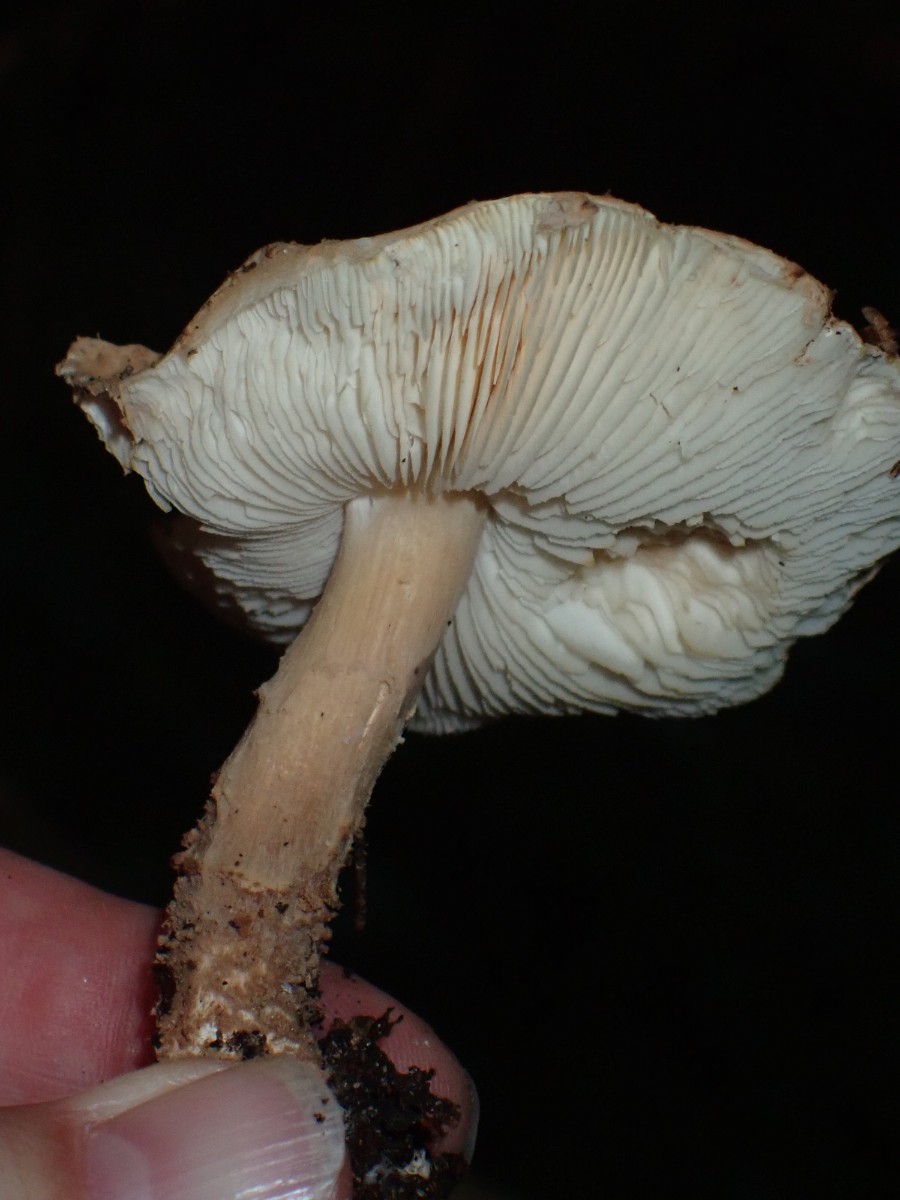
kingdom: Fungi
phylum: Basidiomycota
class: Agaricomycetes
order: Agaricales
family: Agaricaceae
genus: Echinoderma
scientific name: Echinoderma jacobi
